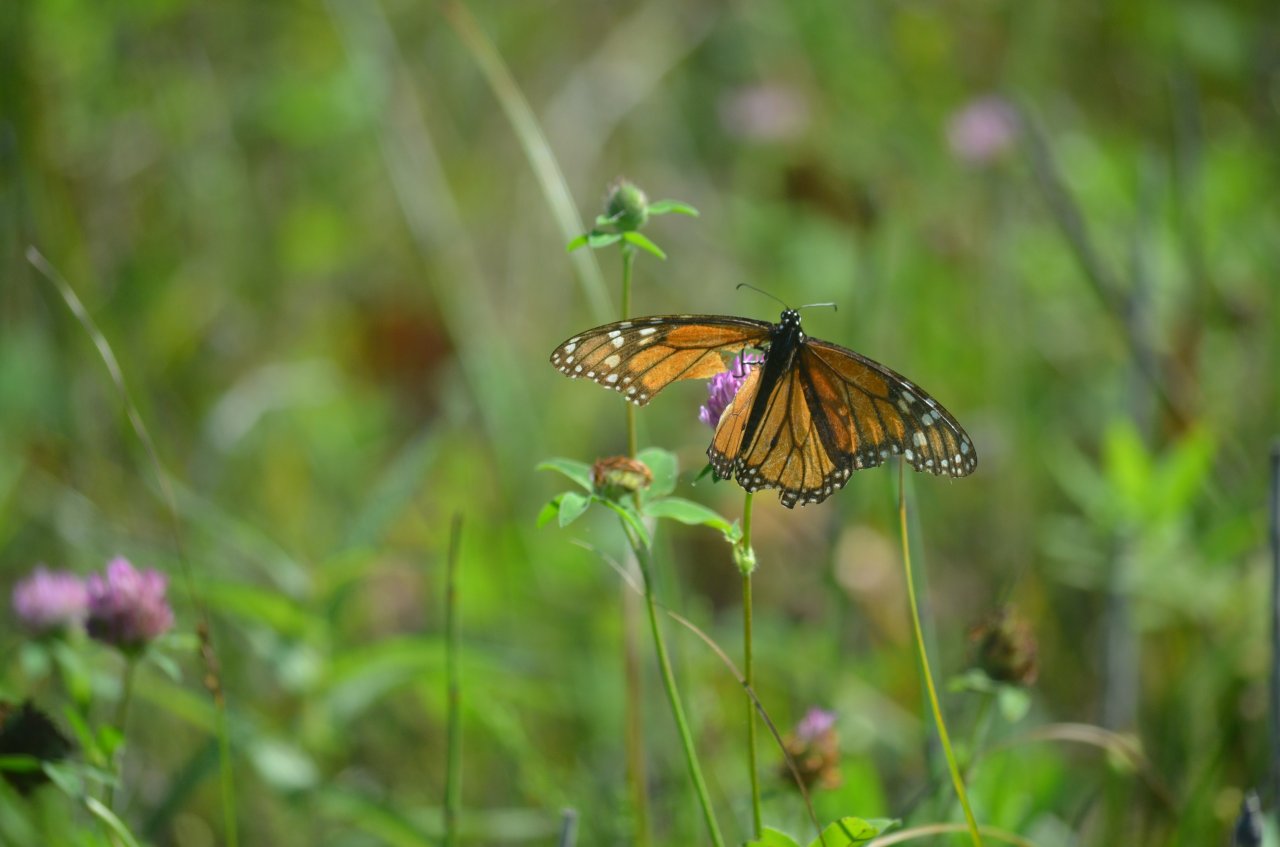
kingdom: Animalia
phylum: Arthropoda
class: Insecta
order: Lepidoptera
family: Nymphalidae
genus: Danaus
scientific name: Danaus plexippus
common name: Monarch
